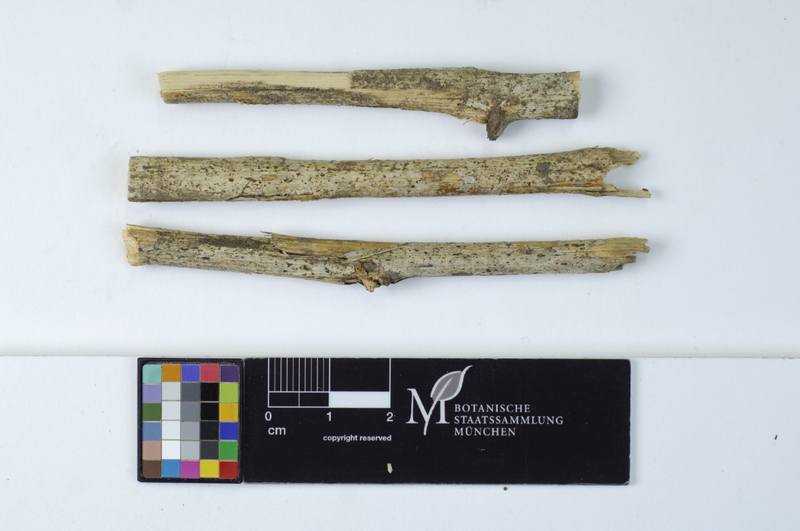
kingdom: Fungi
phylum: Basidiomycota
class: Agaricomycetes
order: Russulales
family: Stereaceae
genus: Aleurodiscus
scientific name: Aleurodiscus aurantius
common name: Briar discus
